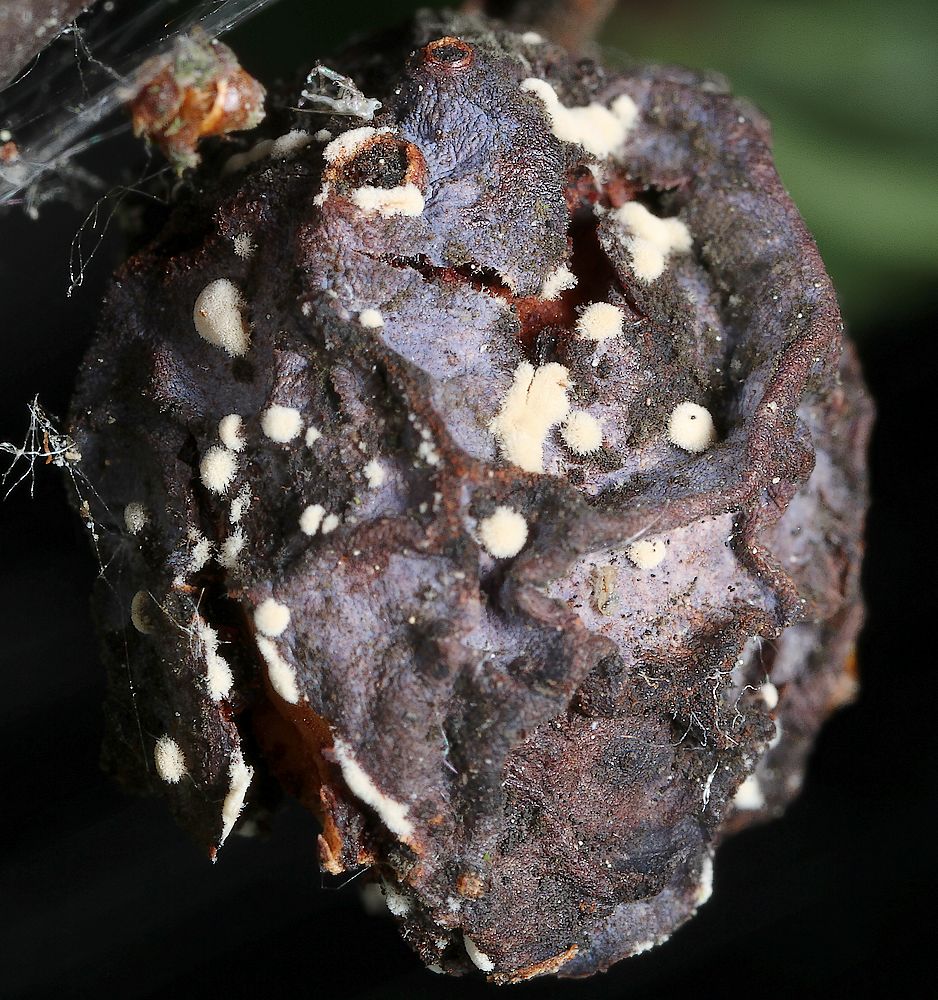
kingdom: Fungi
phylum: Ascomycota
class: Leotiomycetes
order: Helotiales
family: Sclerotiniaceae
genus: Monilinia
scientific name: Monilinia fructigena
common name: æble-knoldskive
